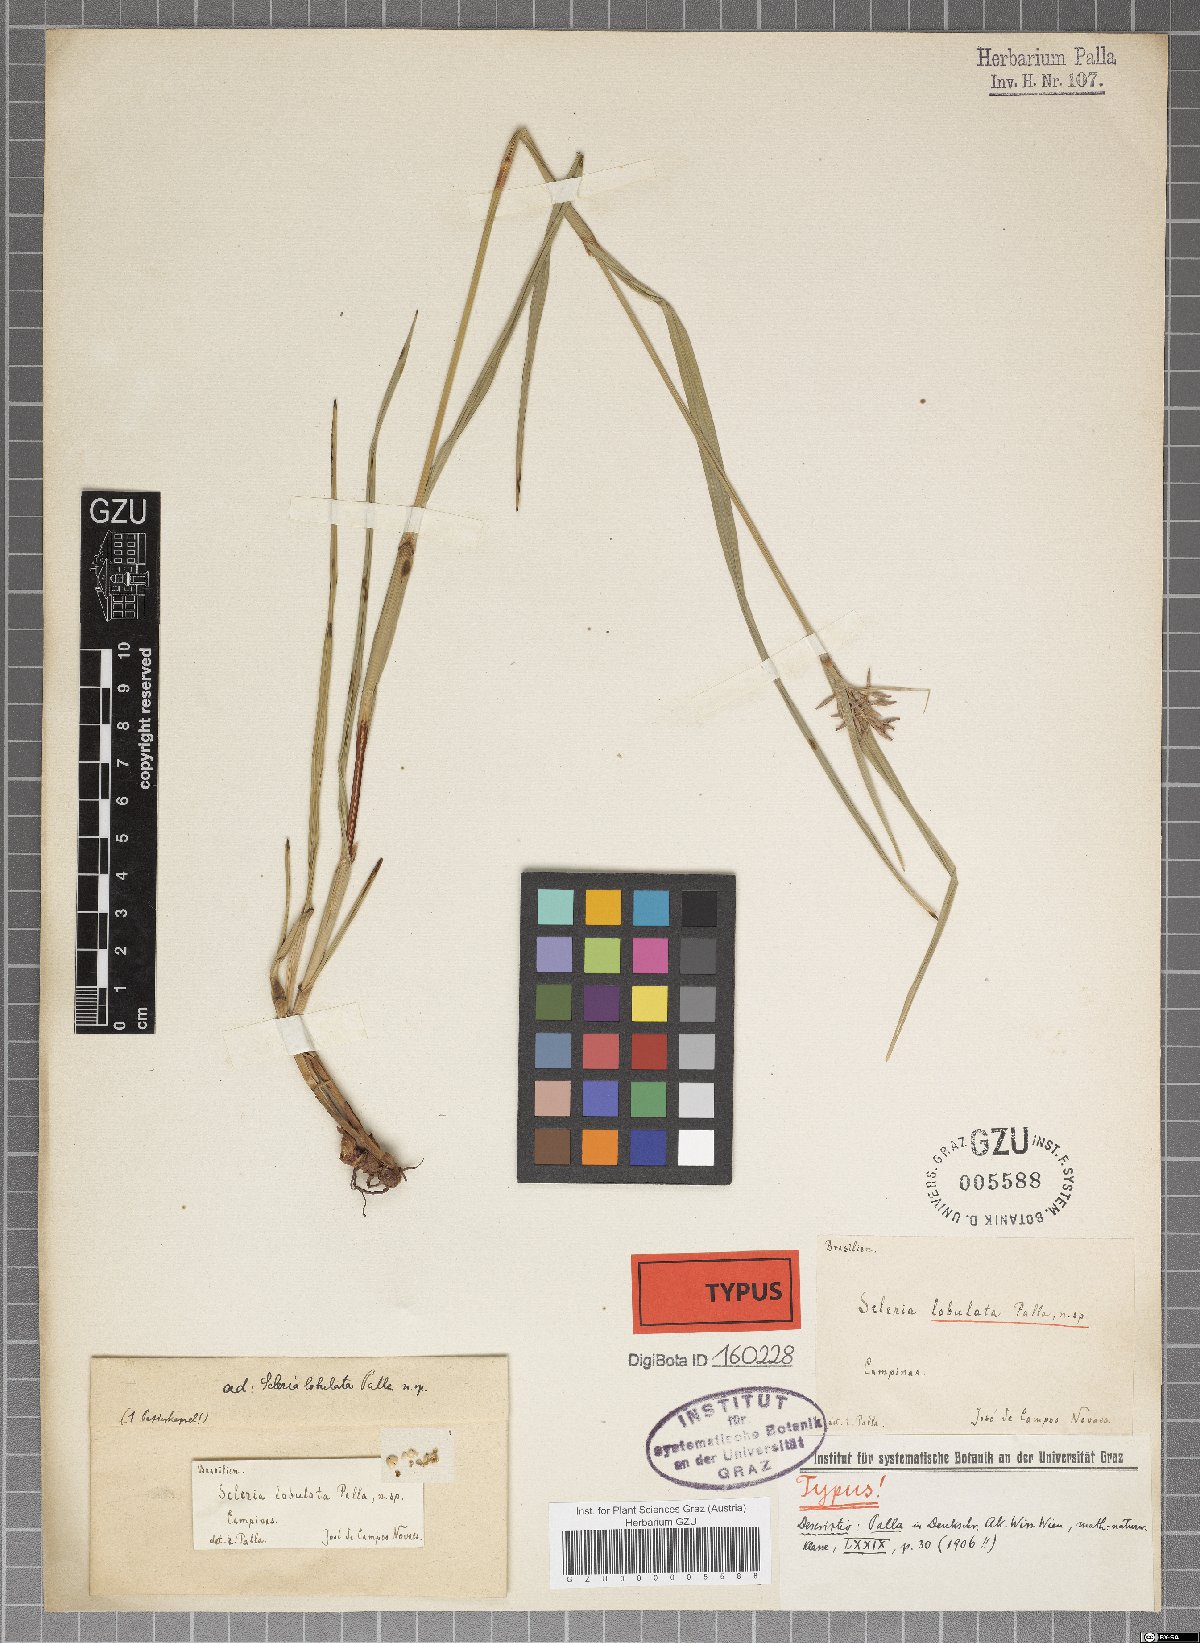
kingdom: Plantae
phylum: Tracheophyta
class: Liliopsida
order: Poales
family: Cyperaceae
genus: Scleria
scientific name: Scleria scabra
